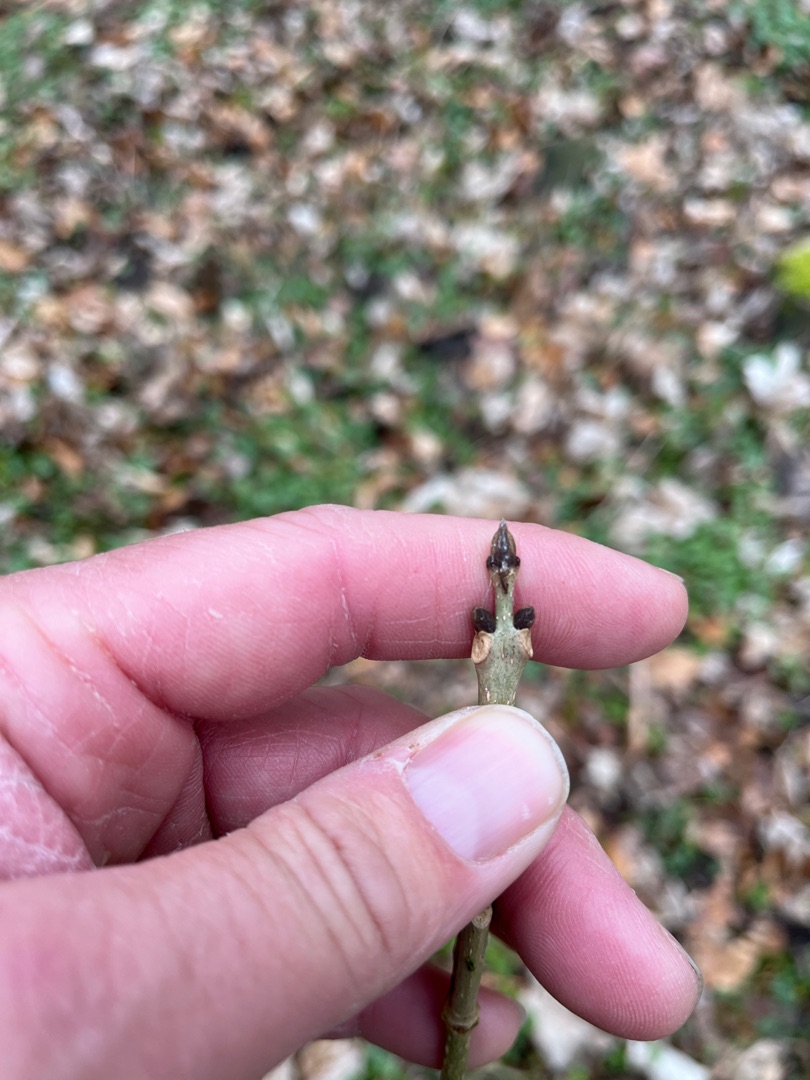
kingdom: Plantae
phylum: Tracheophyta
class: Magnoliopsida
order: Lamiales
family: Oleaceae
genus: Fraxinus
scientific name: Fraxinus excelsior
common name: Ask
